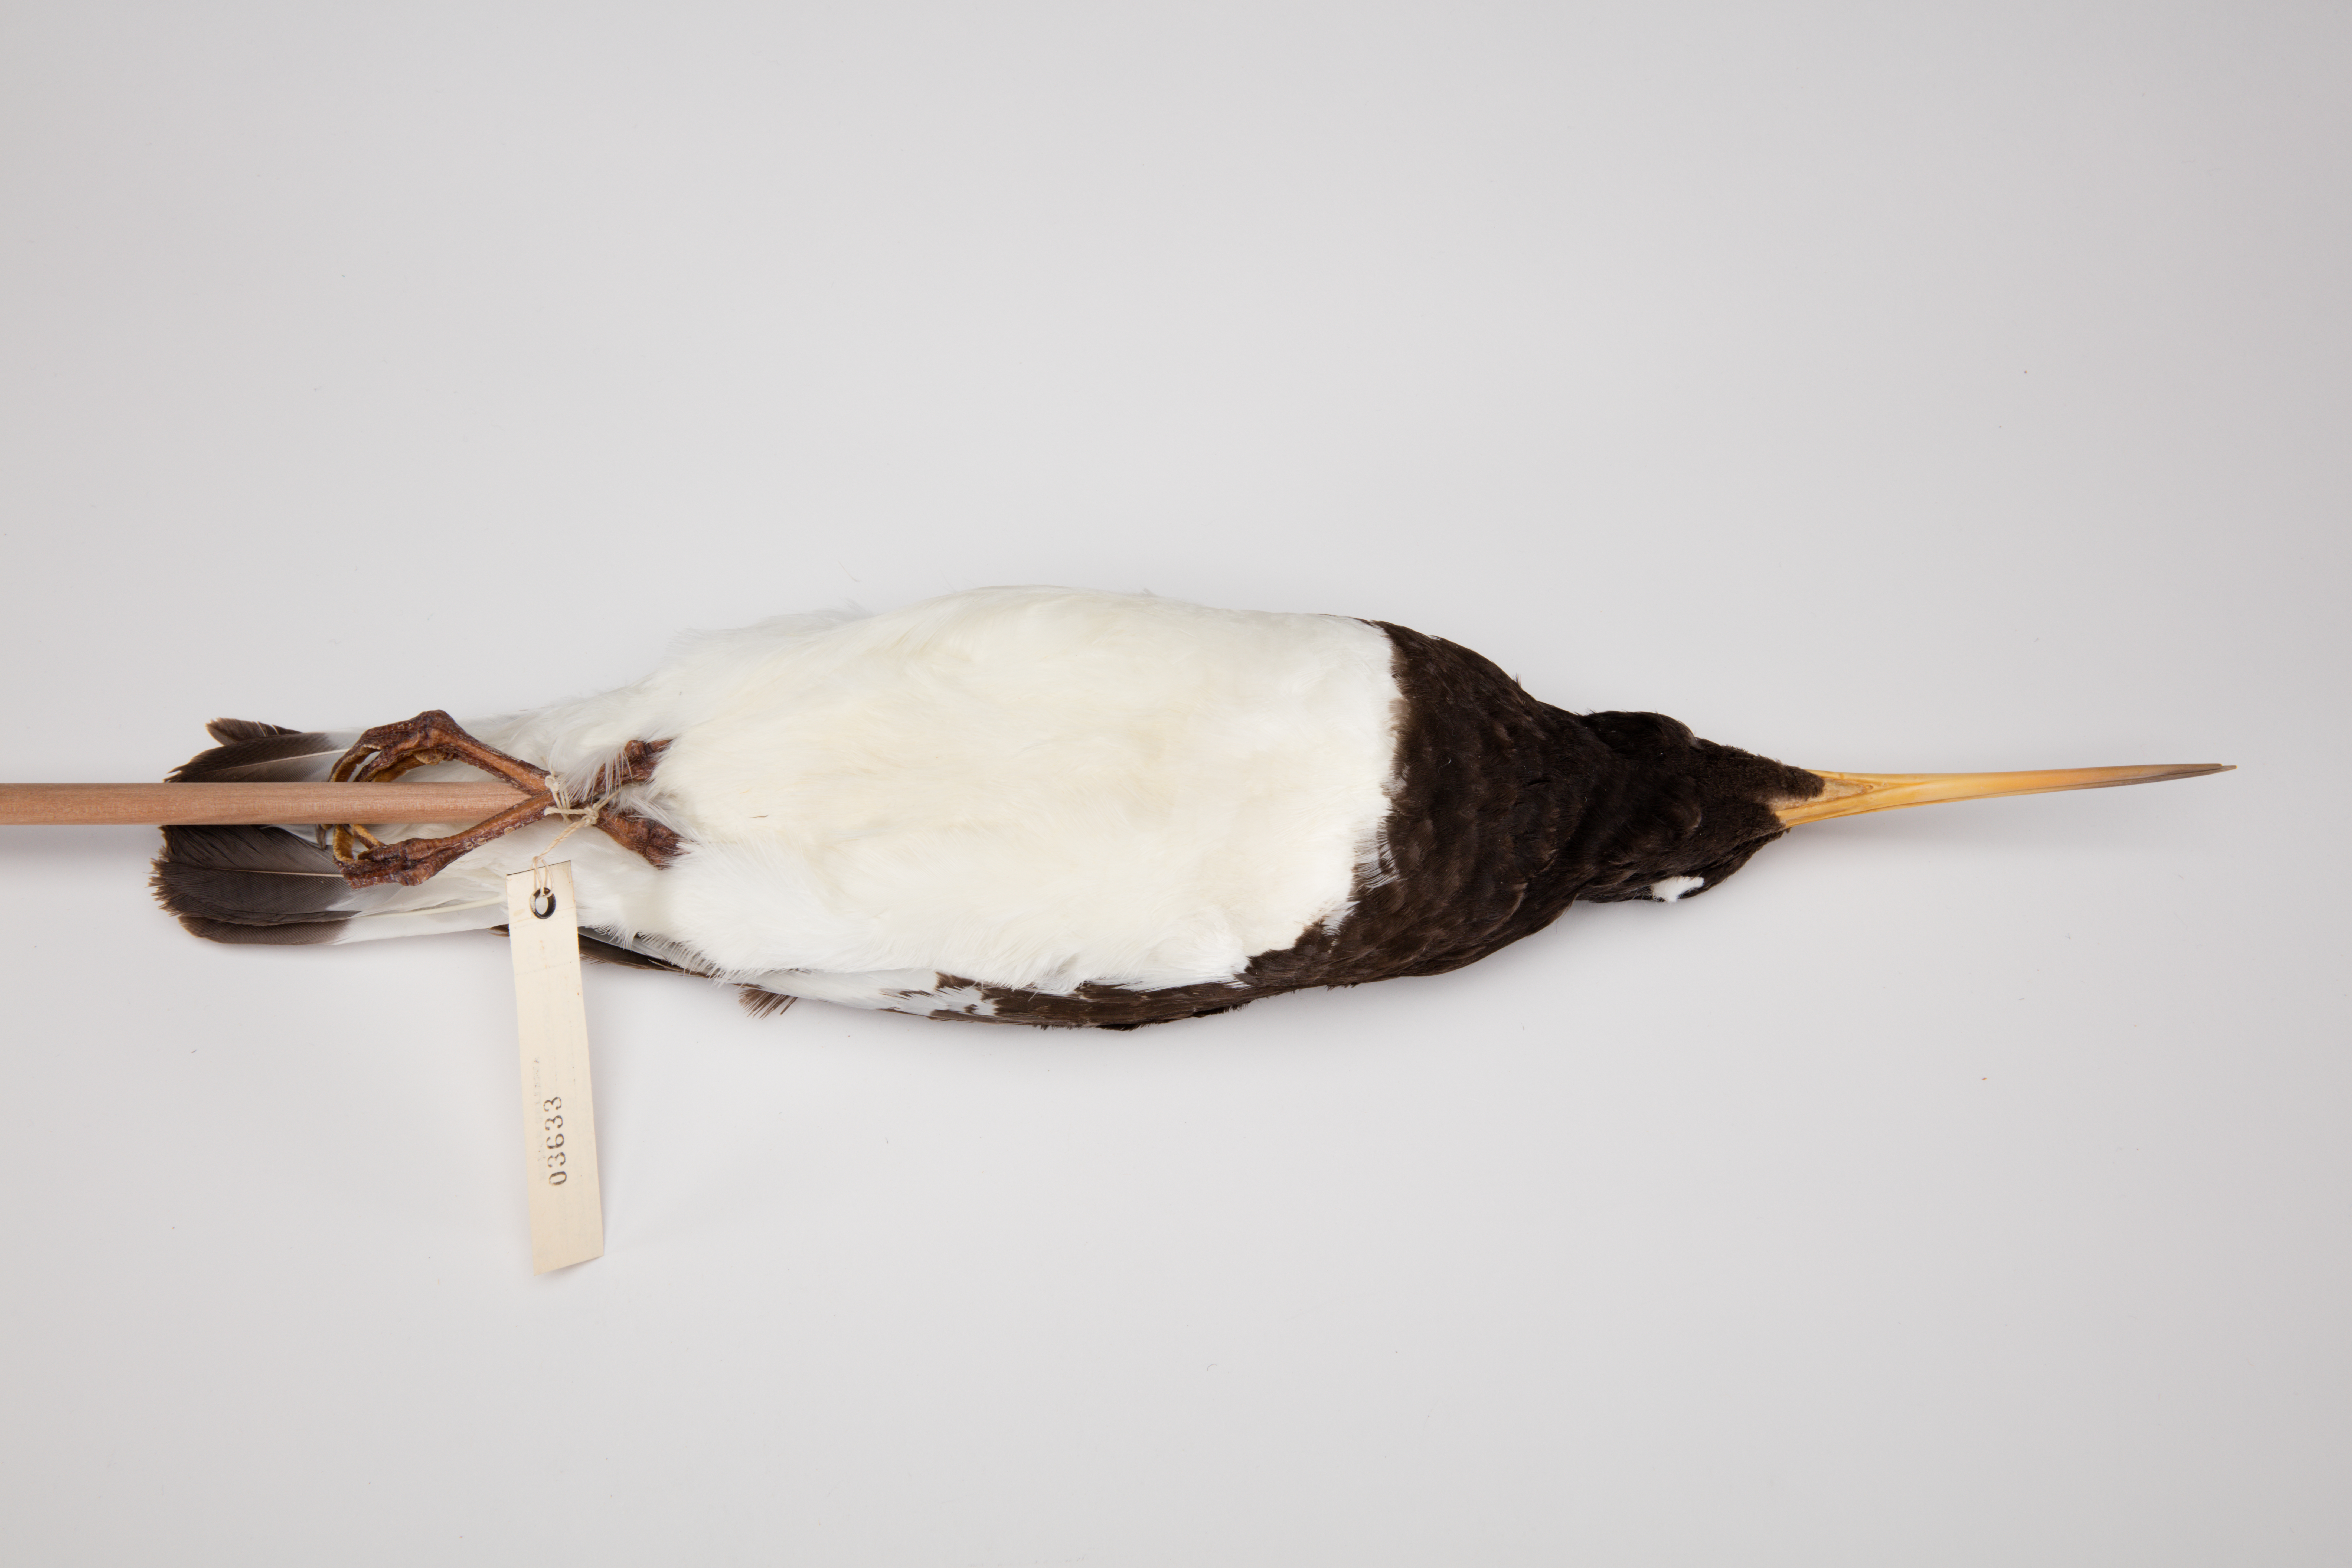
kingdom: Animalia
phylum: Chordata
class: Aves
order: Charadriiformes
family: Haematopodidae
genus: Haematopus
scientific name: Haematopus finschi
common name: South island oystercatcher
